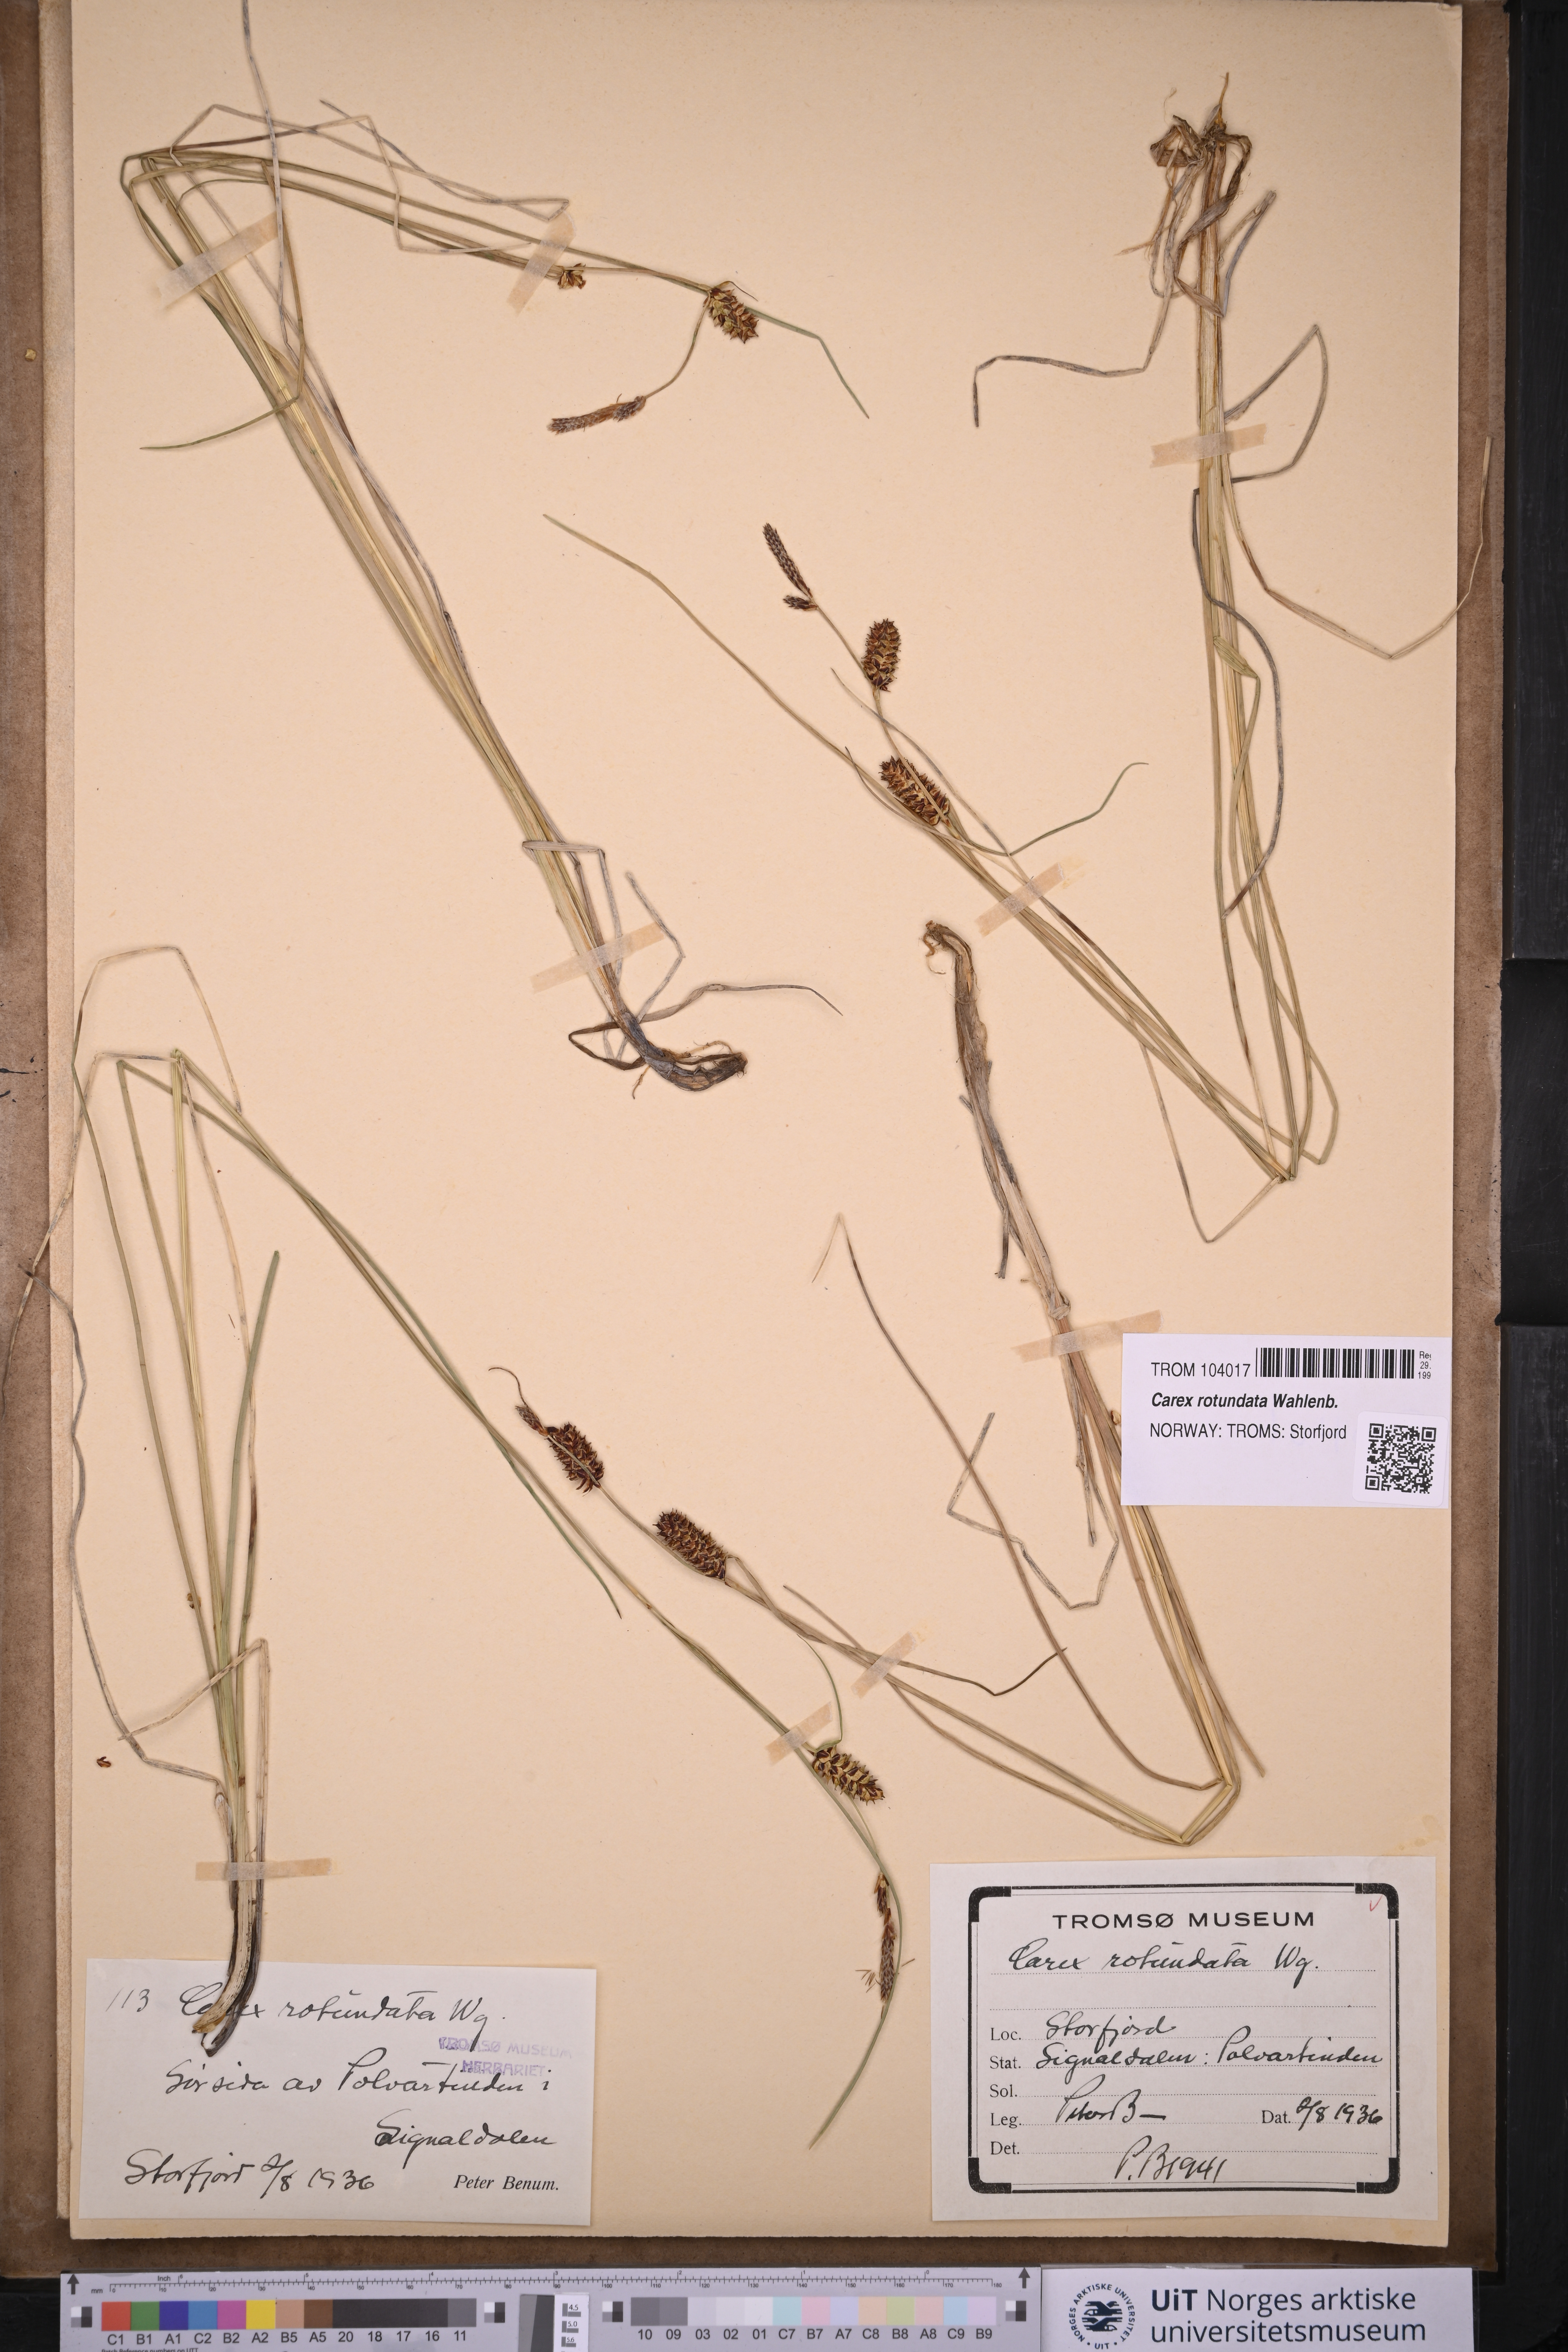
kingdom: Plantae
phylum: Tracheophyta
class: Liliopsida
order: Poales
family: Cyperaceae
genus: Carex
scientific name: Carex rotundata
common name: Round-fruited sedge
